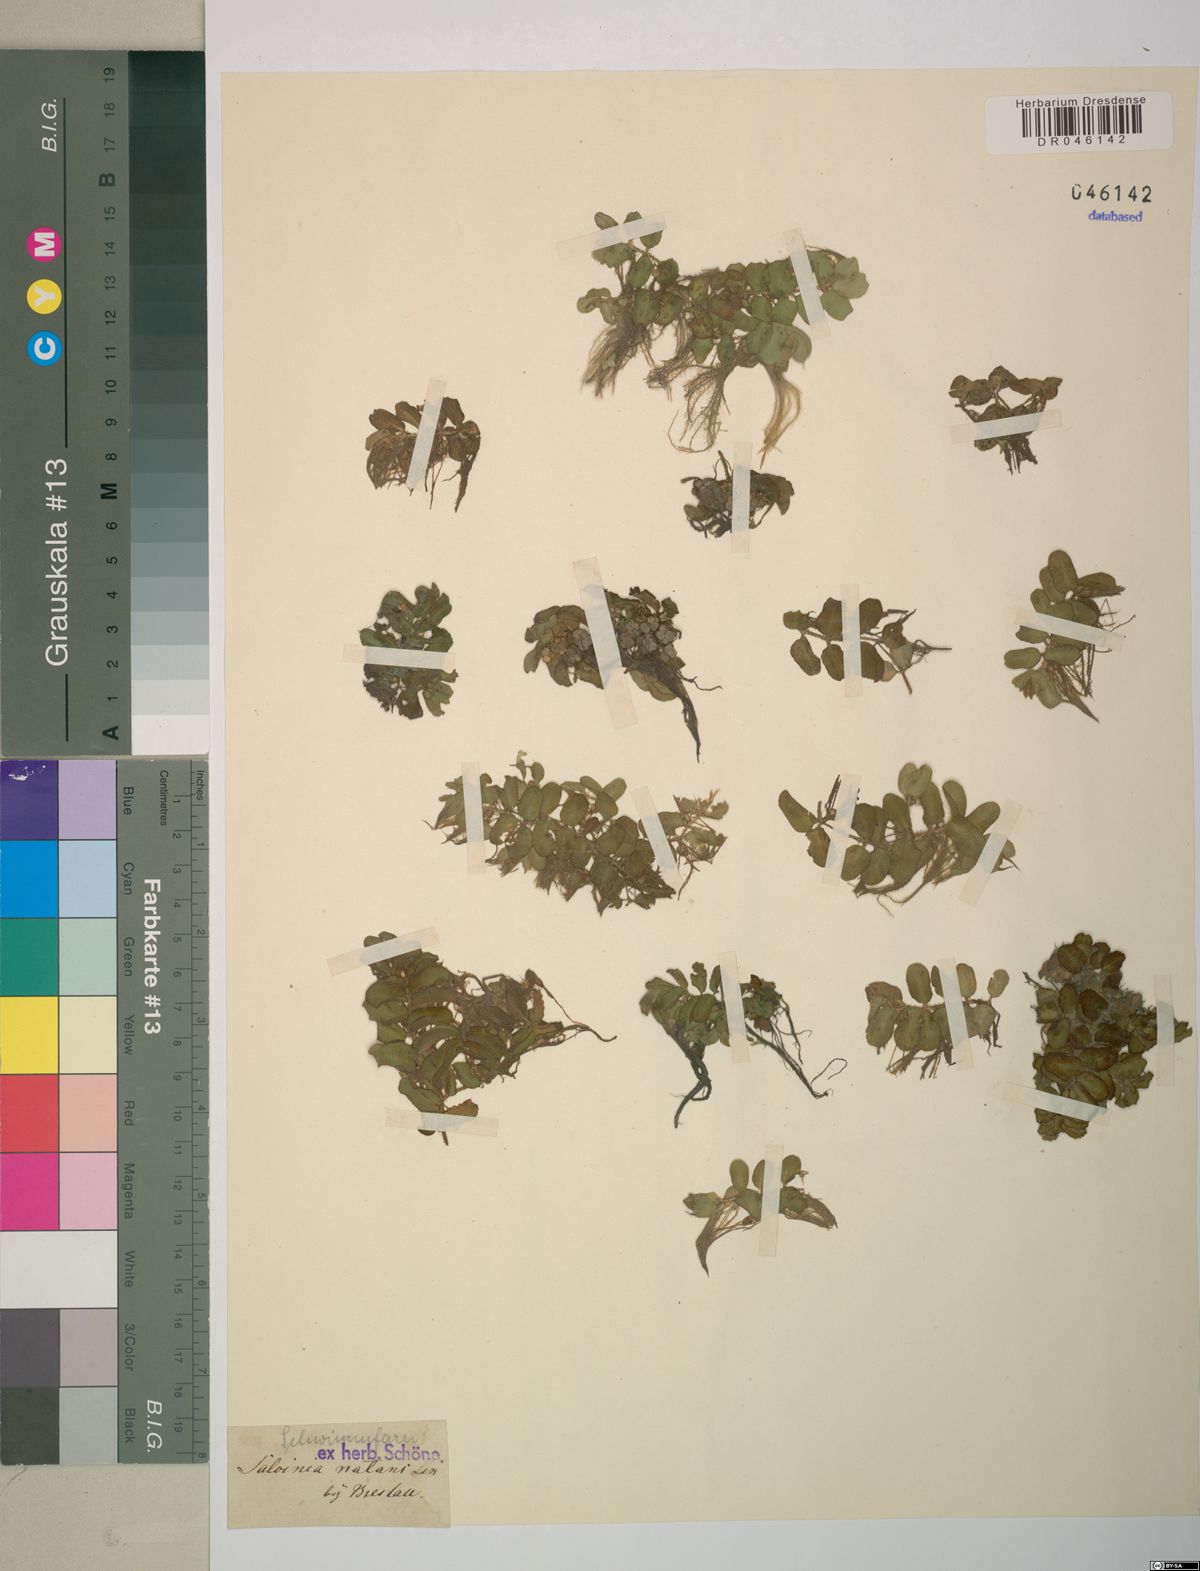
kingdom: Plantae
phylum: Tracheophyta
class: Polypodiopsida
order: Salviniales
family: Salviniaceae
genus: Salvinia
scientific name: Salvinia natans
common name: Floating fern
